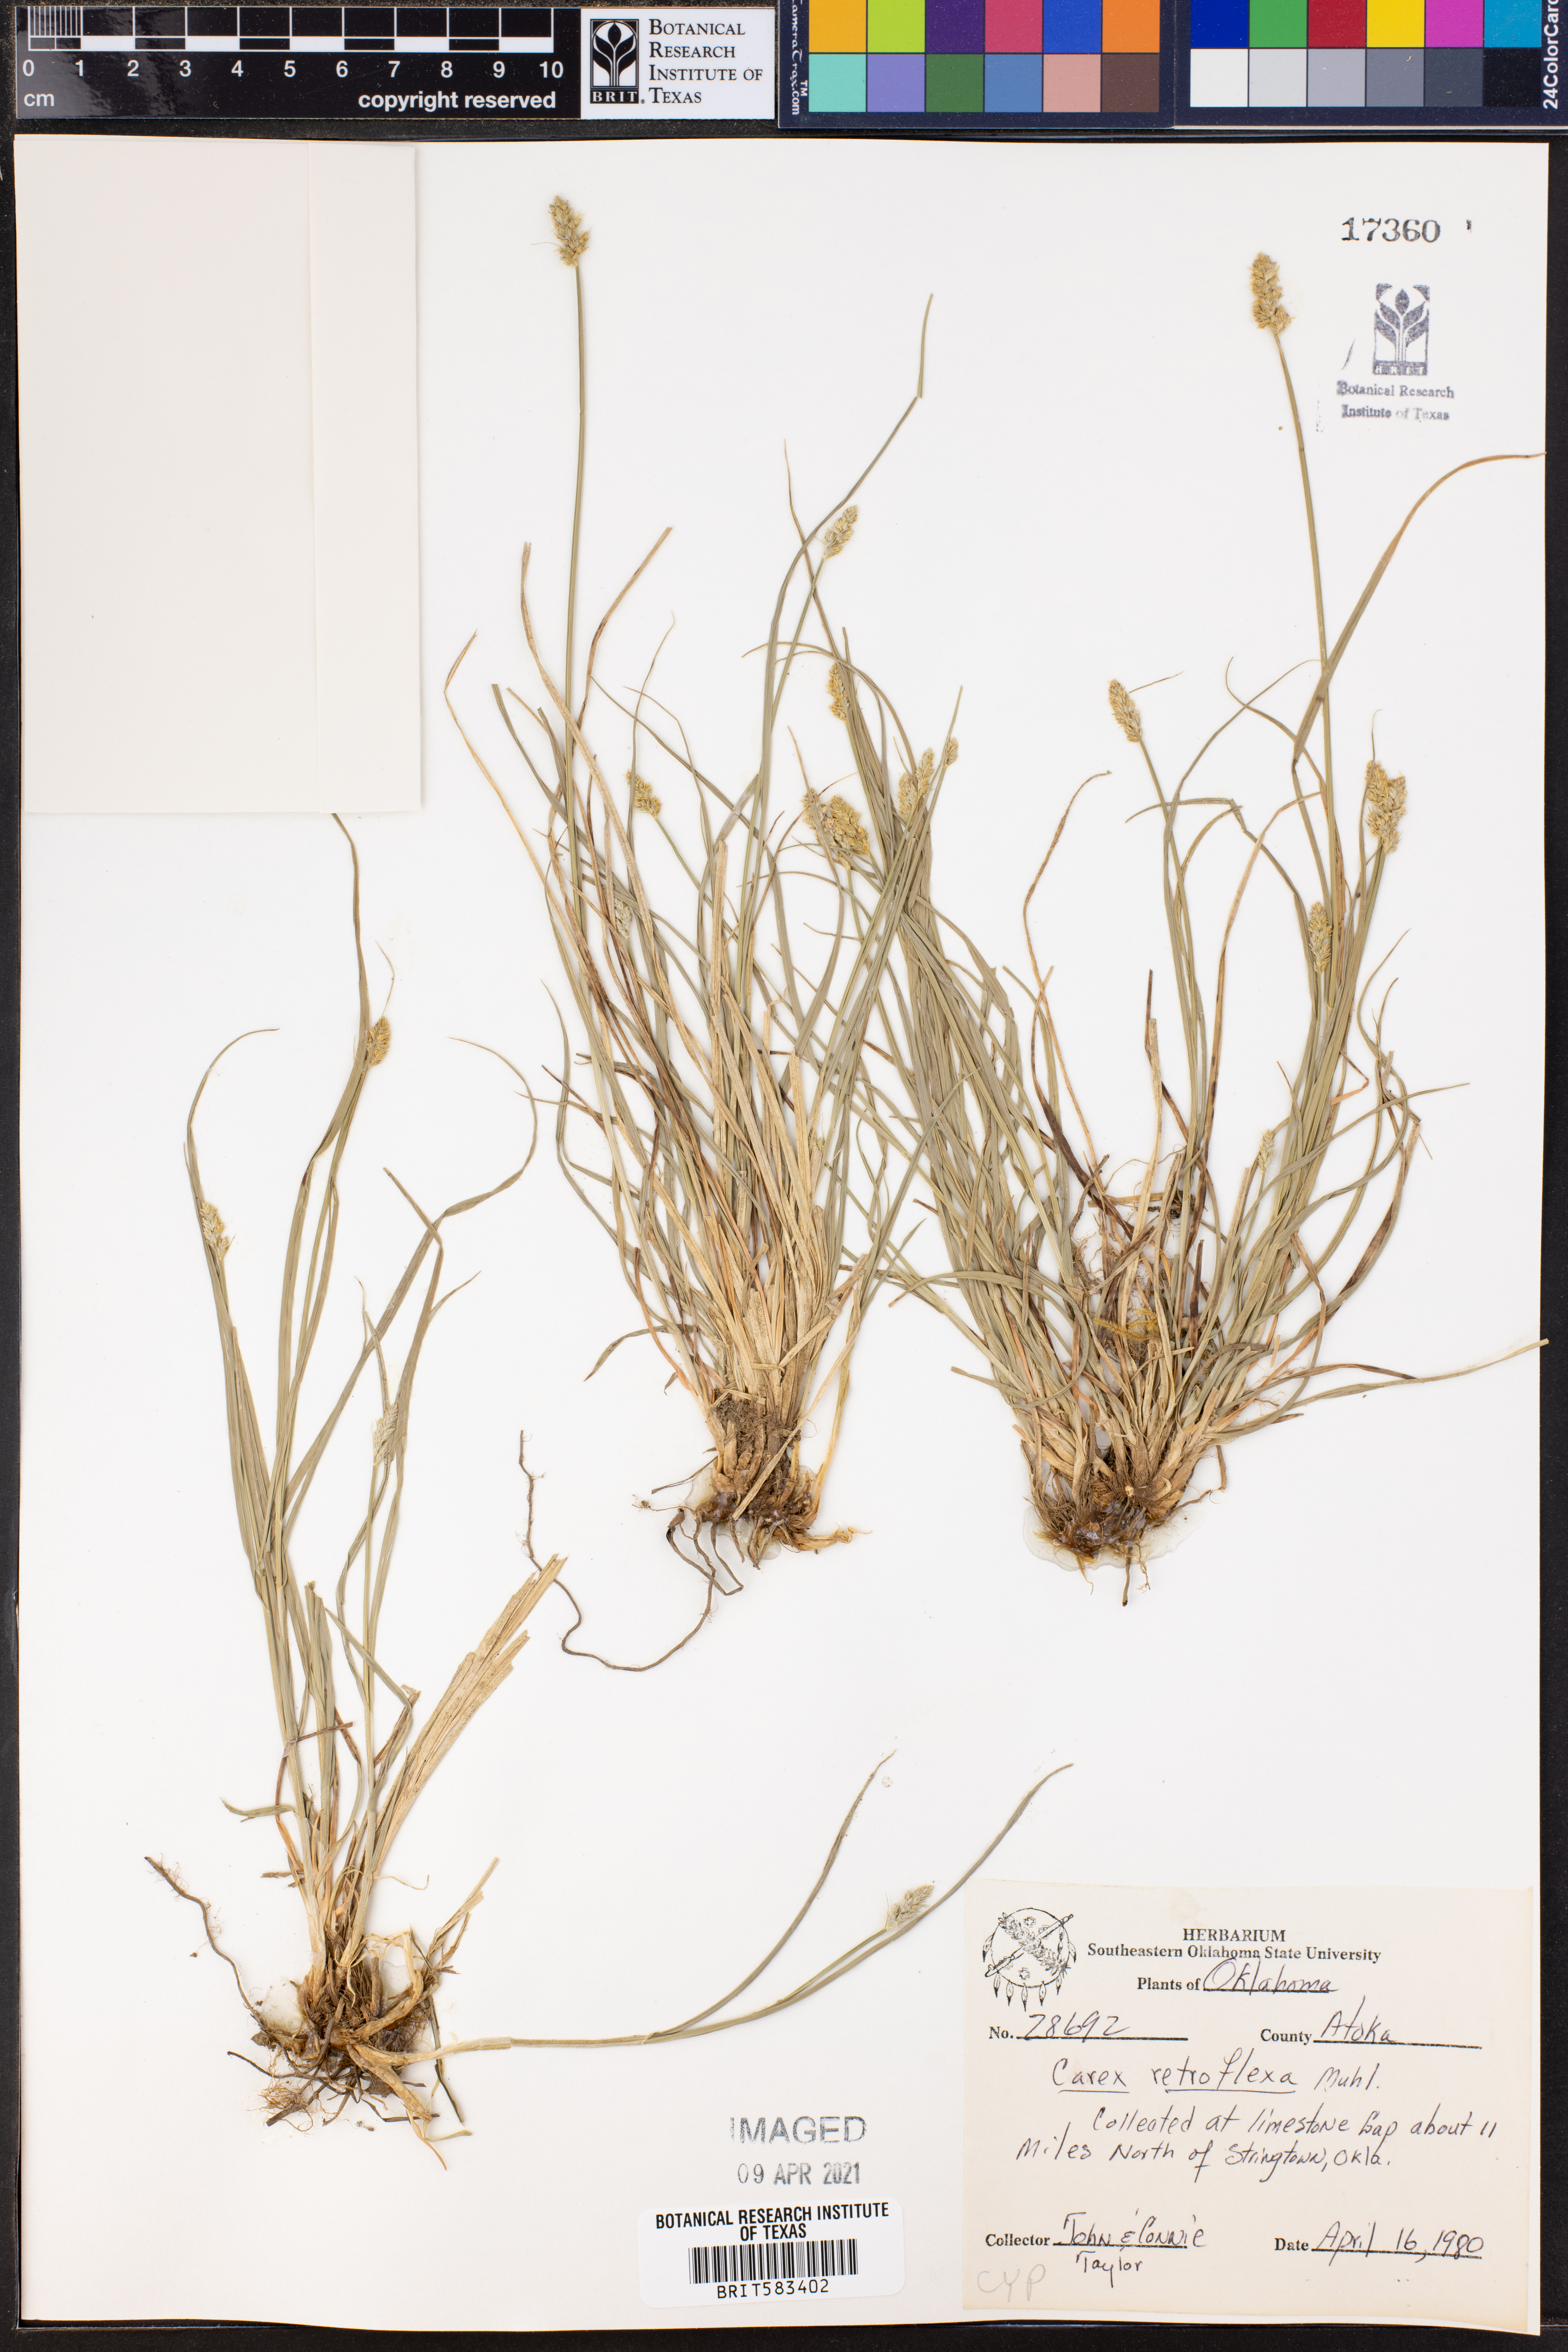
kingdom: Plantae
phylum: Tracheophyta
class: Liliopsida
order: Poales
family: Cyperaceae
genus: Carex
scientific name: Carex retroflexa
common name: Reflexed sedge
